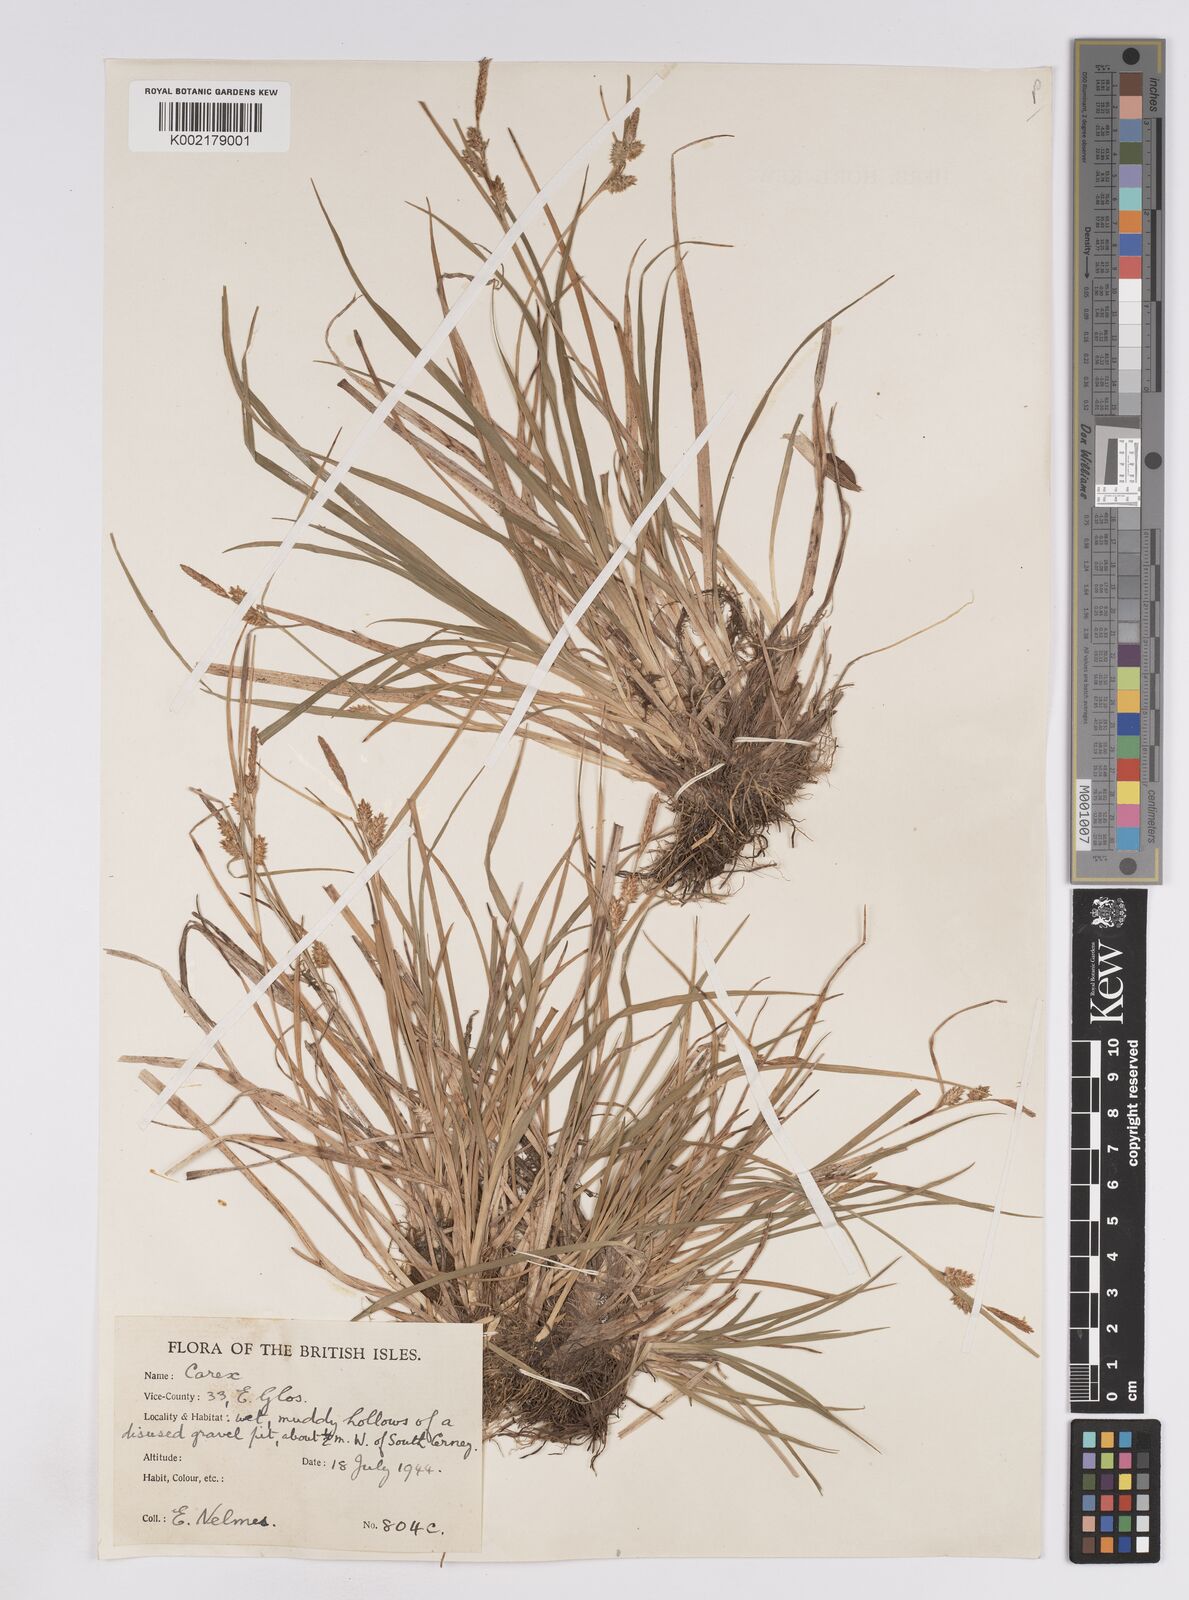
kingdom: Plantae
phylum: Tracheophyta
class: Liliopsida
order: Poales
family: Cyperaceae
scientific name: Cyperaceae
